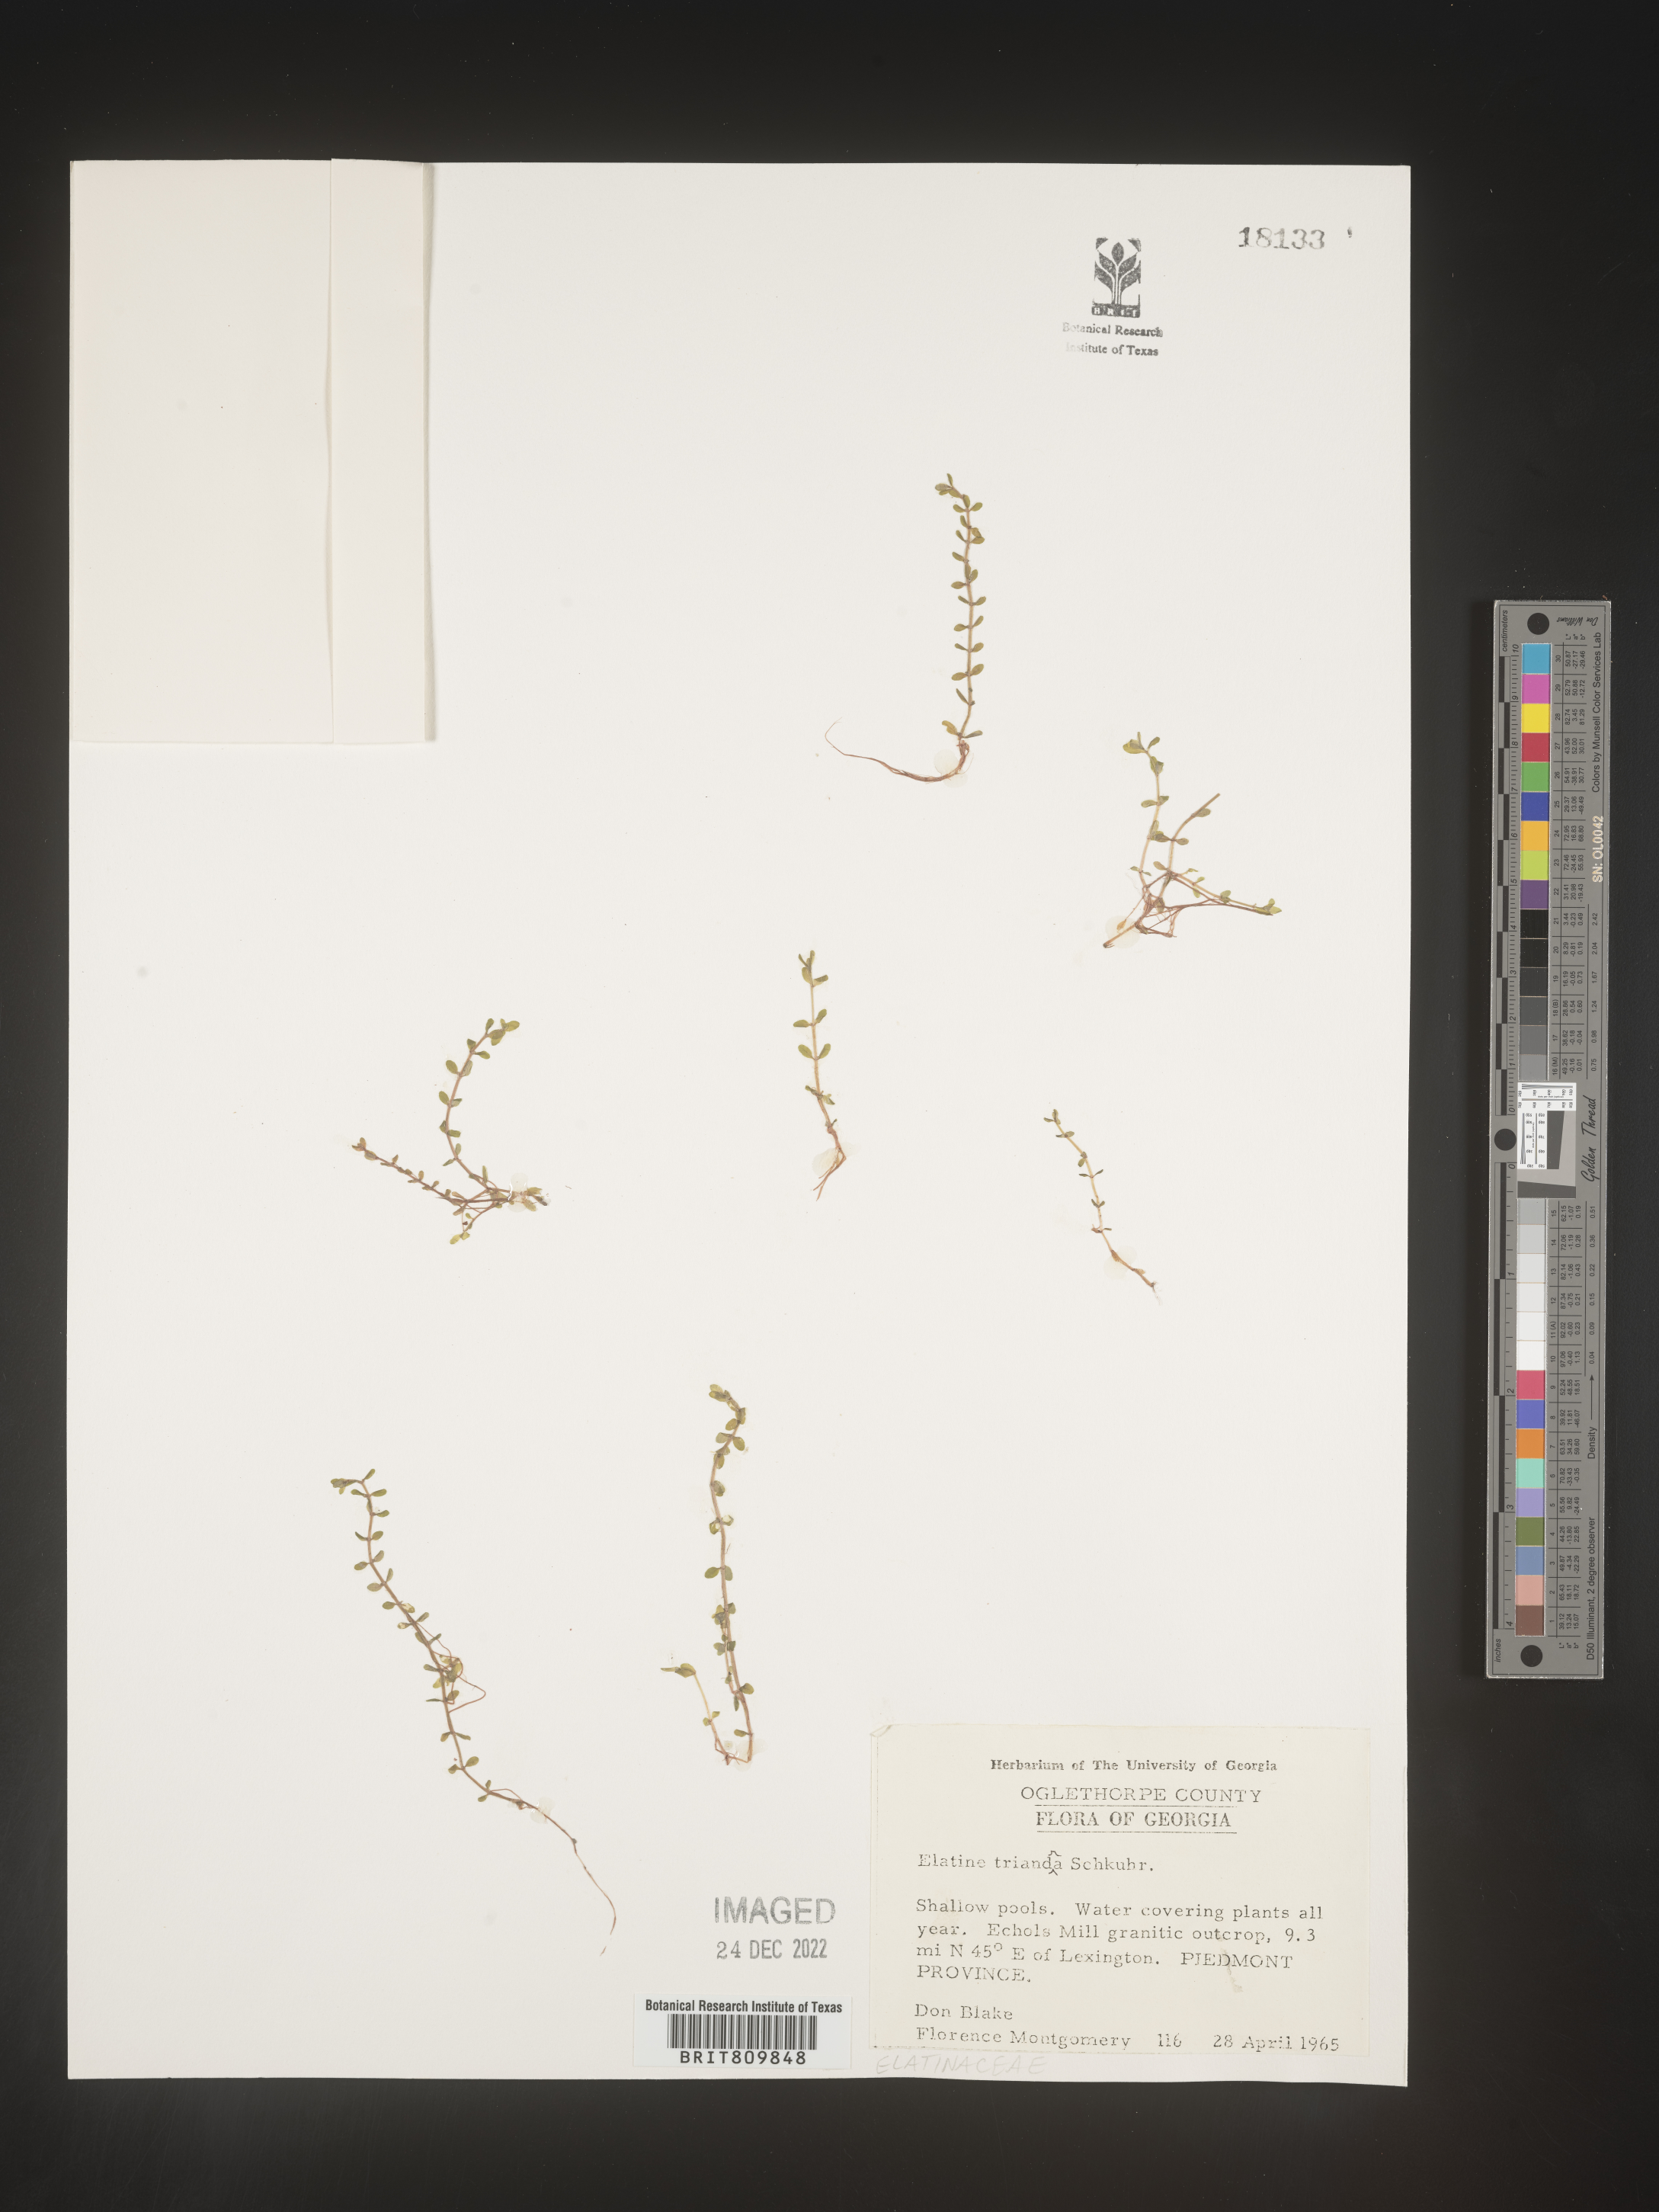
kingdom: Plantae
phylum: Tracheophyta
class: Magnoliopsida
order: Malpighiales
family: Elatinaceae
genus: Elatine
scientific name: Elatine
